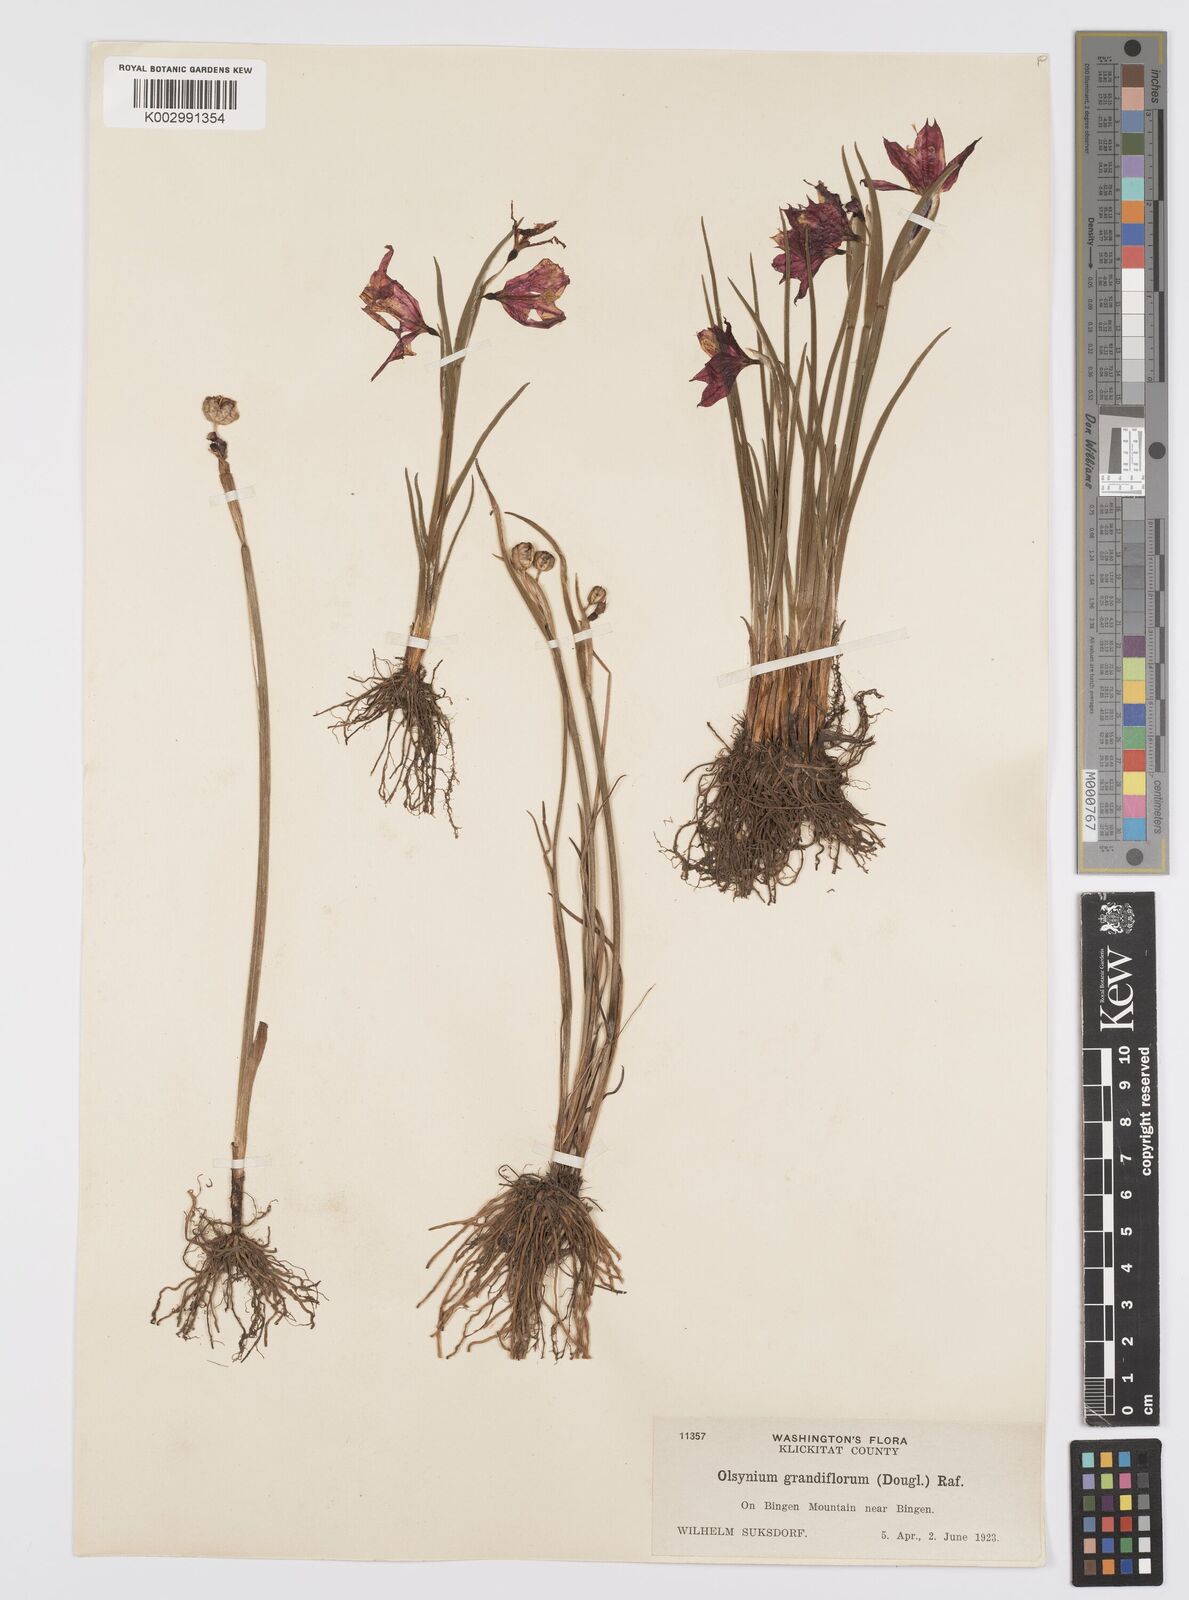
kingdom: Plantae
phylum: Tracheophyta
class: Liliopsida
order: Asparagales
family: Iridaceae
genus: Olsynium
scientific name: Olsynium douglasii
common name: Douglas' grasswidow
